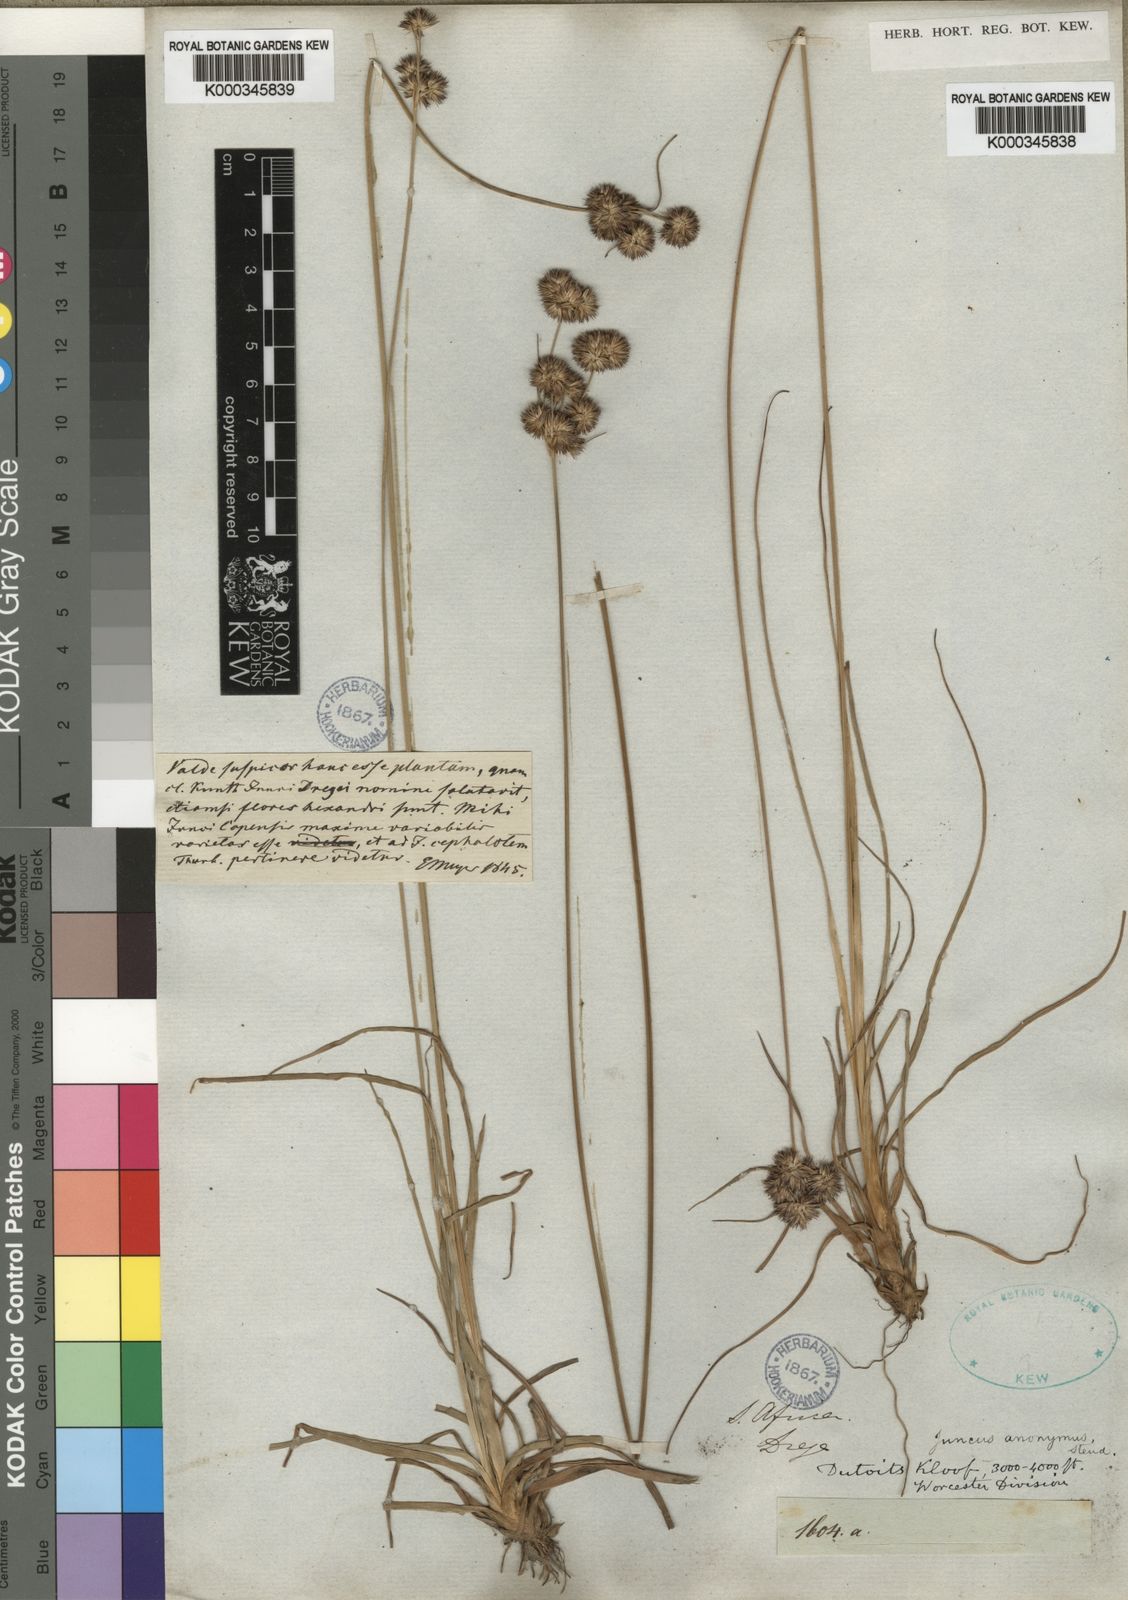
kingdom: Plantae
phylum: Tracheophyta
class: Liliopsida
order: Poales
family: Juncaceae
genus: Juncus
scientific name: Juncus capensis
